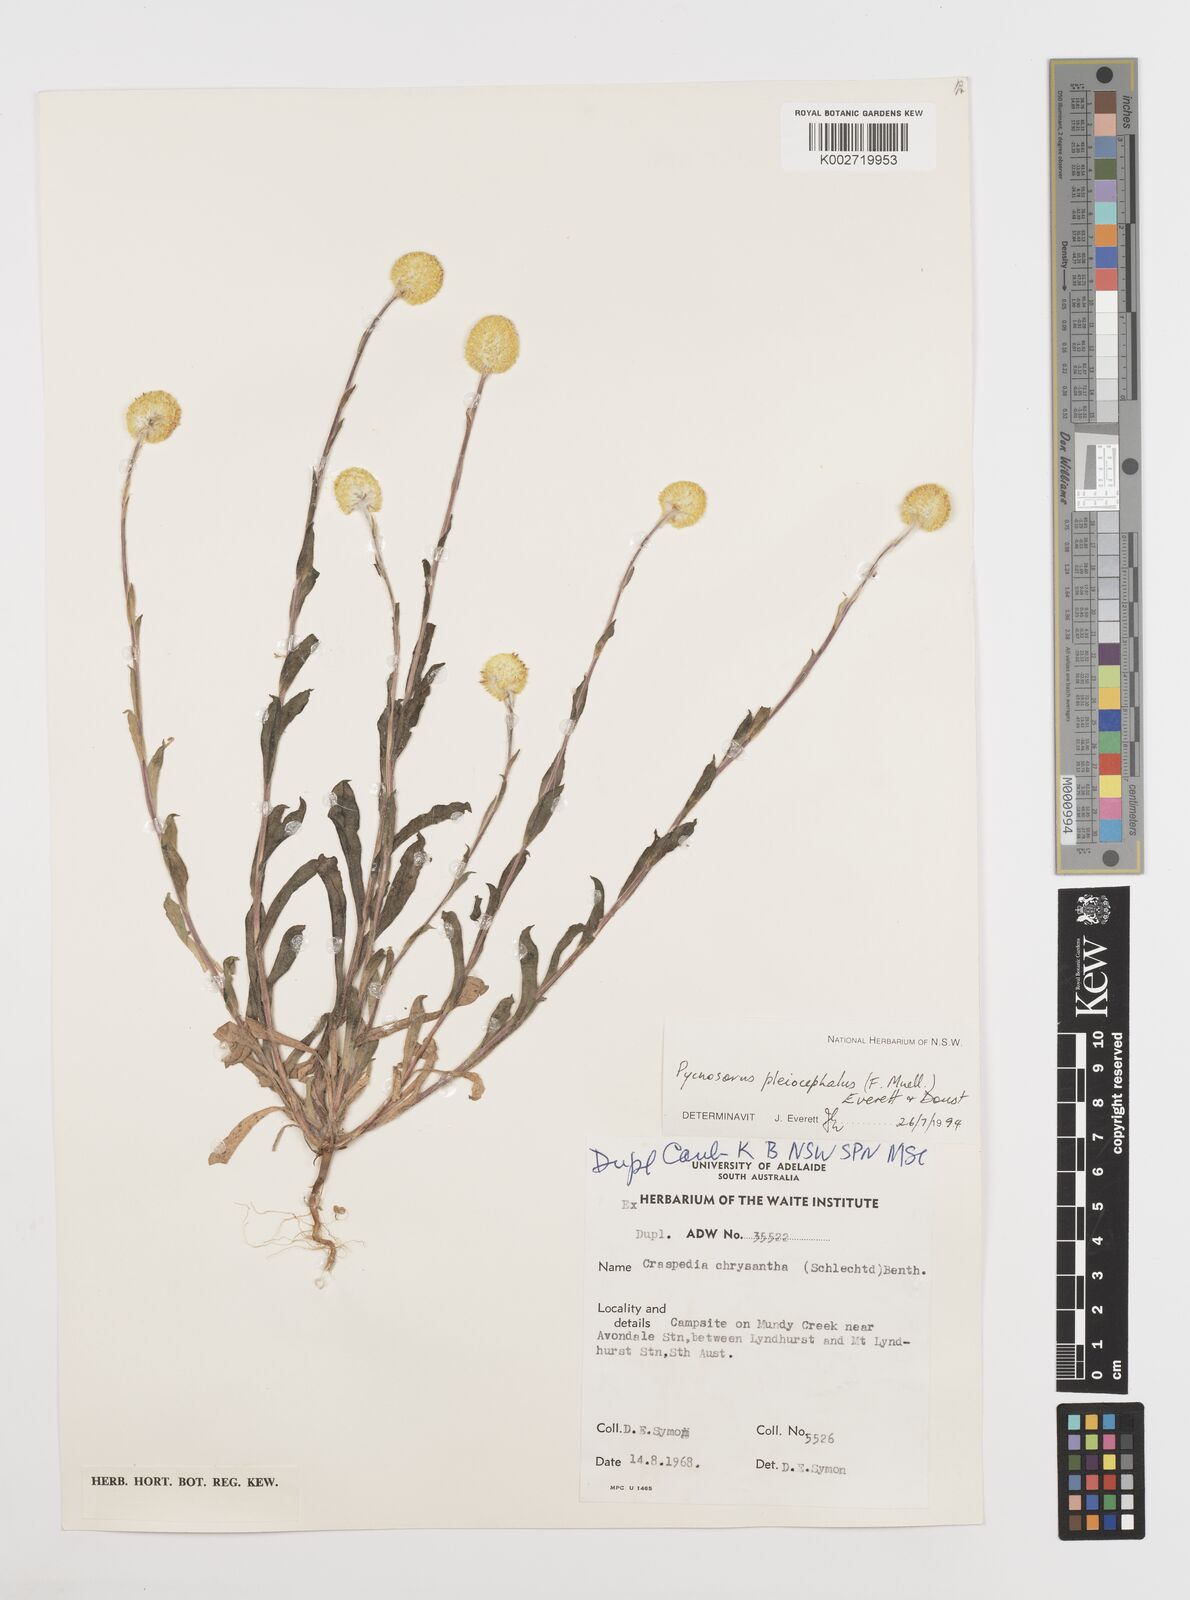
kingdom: Plantae
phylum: Tracheophyta
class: Magnoliopsida
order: Asterales
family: Asteraceae
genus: Pycnosorus
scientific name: Pycnosorus pleiocephalus
